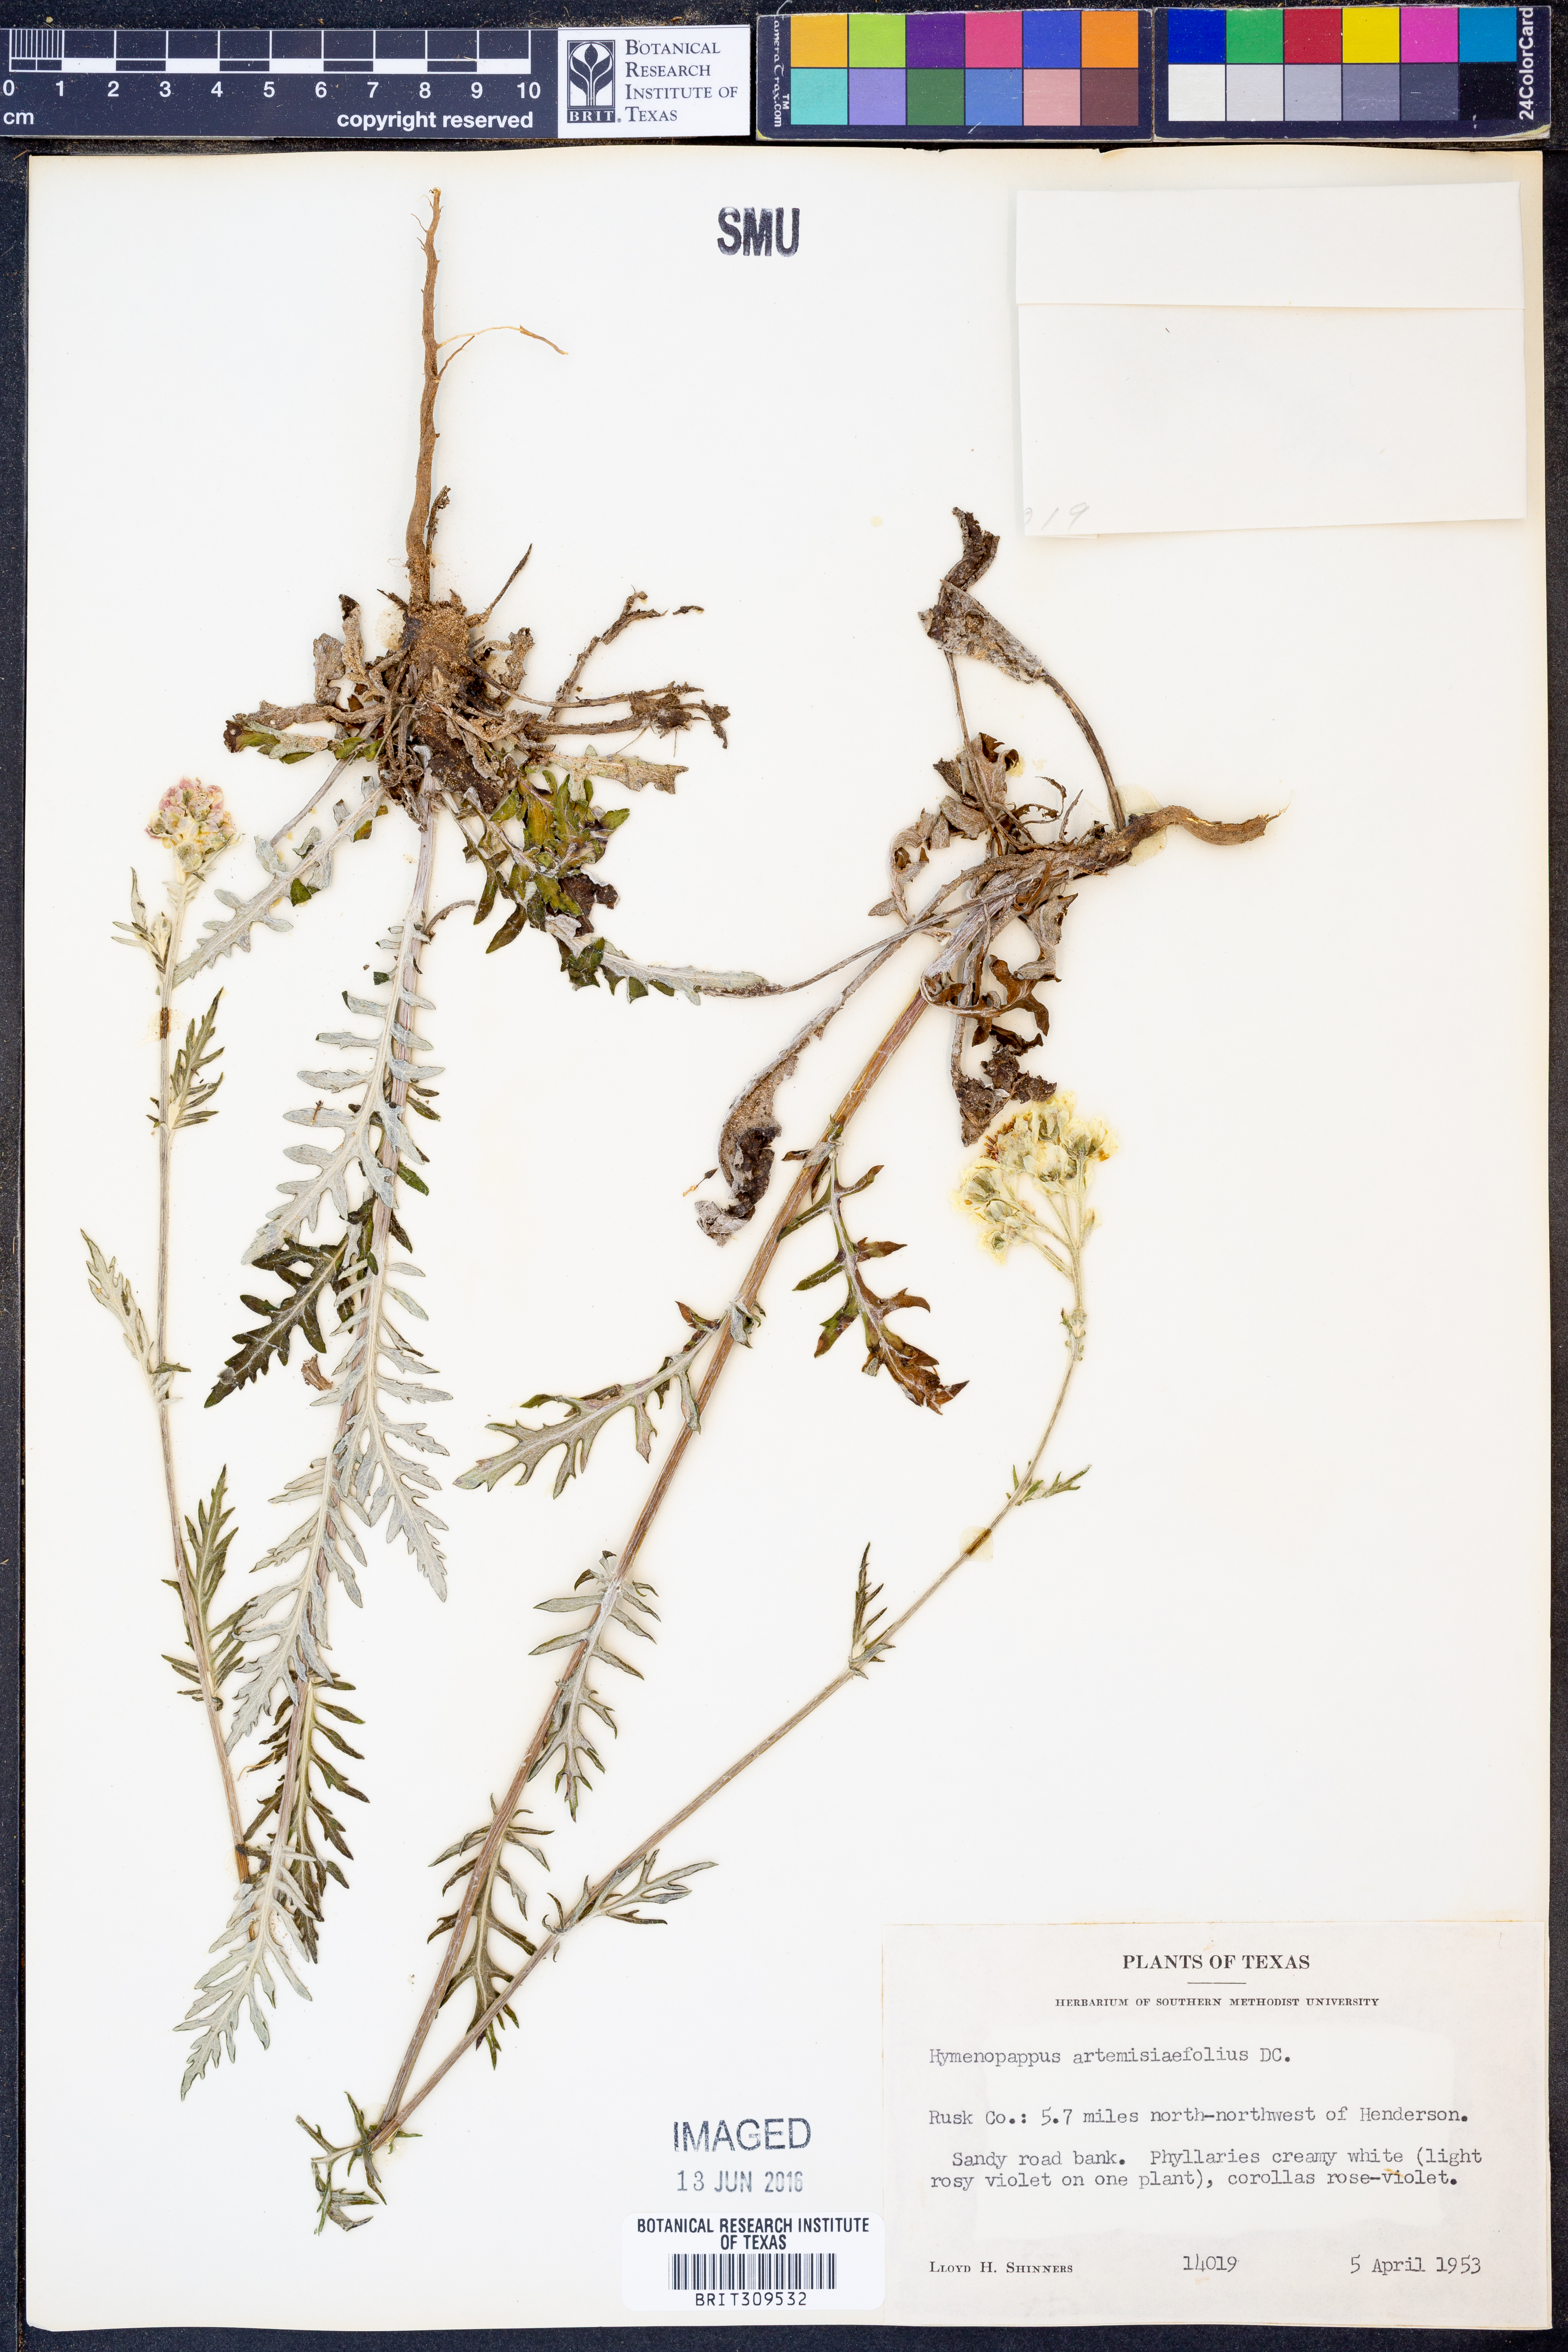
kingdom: Plantae
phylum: Tracheophyta
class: Magnoliopsida
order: Asterales
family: Asteraceae
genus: Hymenopappus
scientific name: Hymenopappus artemisiifolius
